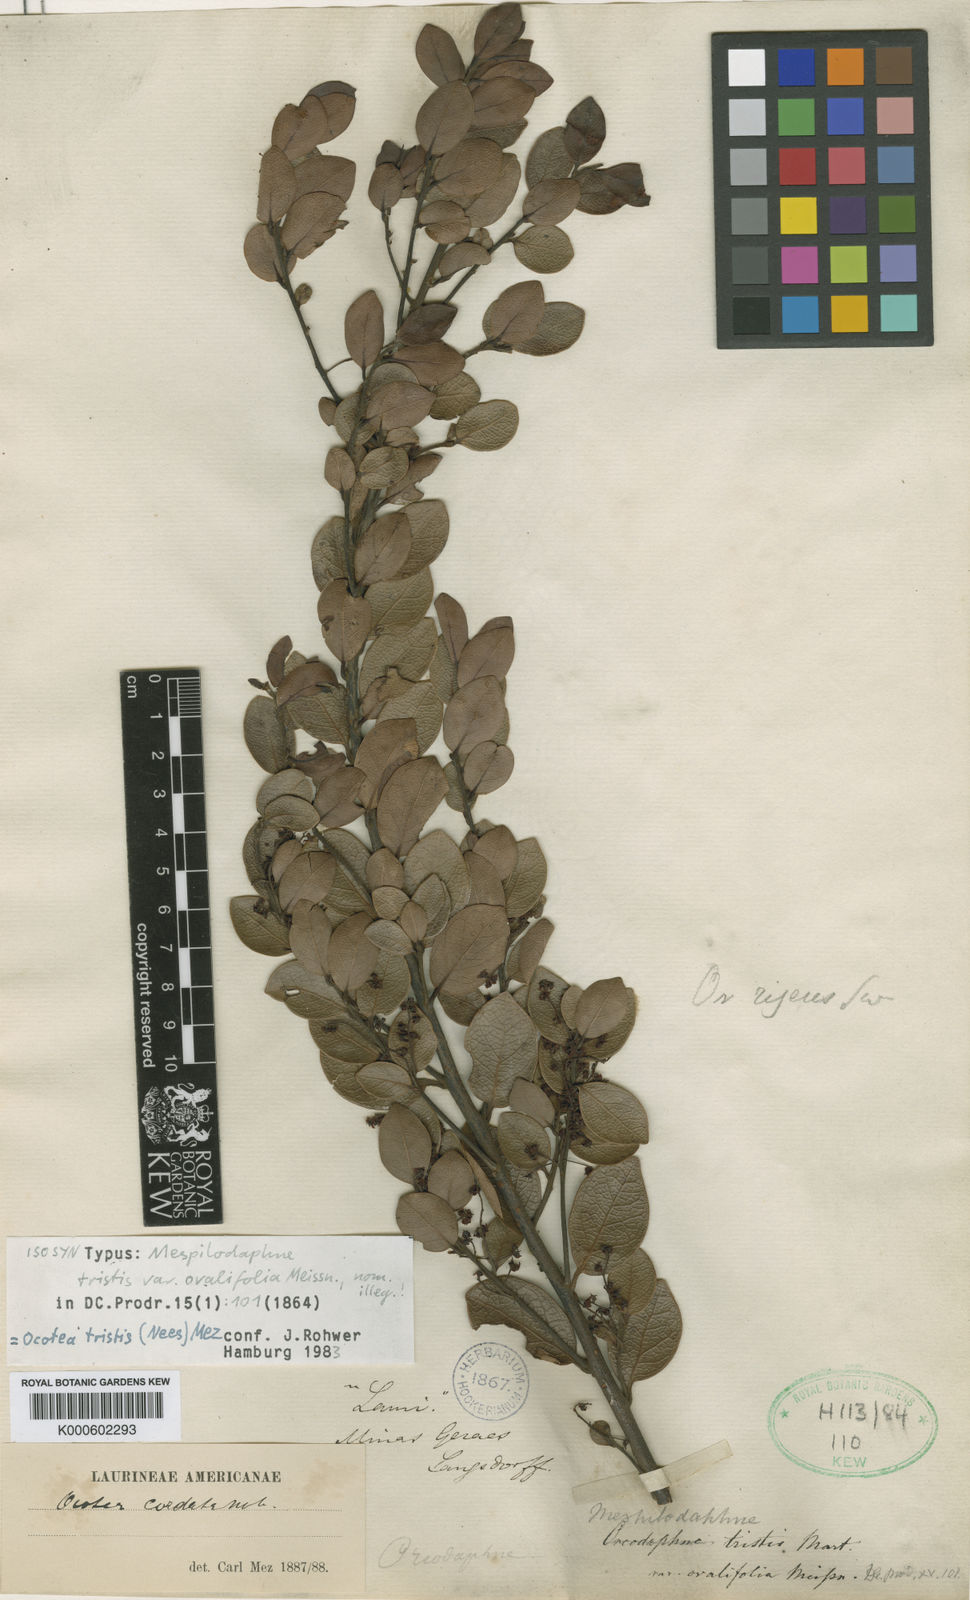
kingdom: Plantae
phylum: Tracheophyta
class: Magnoliopsida
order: Laurales
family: Lauraceae
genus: Mespilodaphne
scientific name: Mespilodaphne tristis
